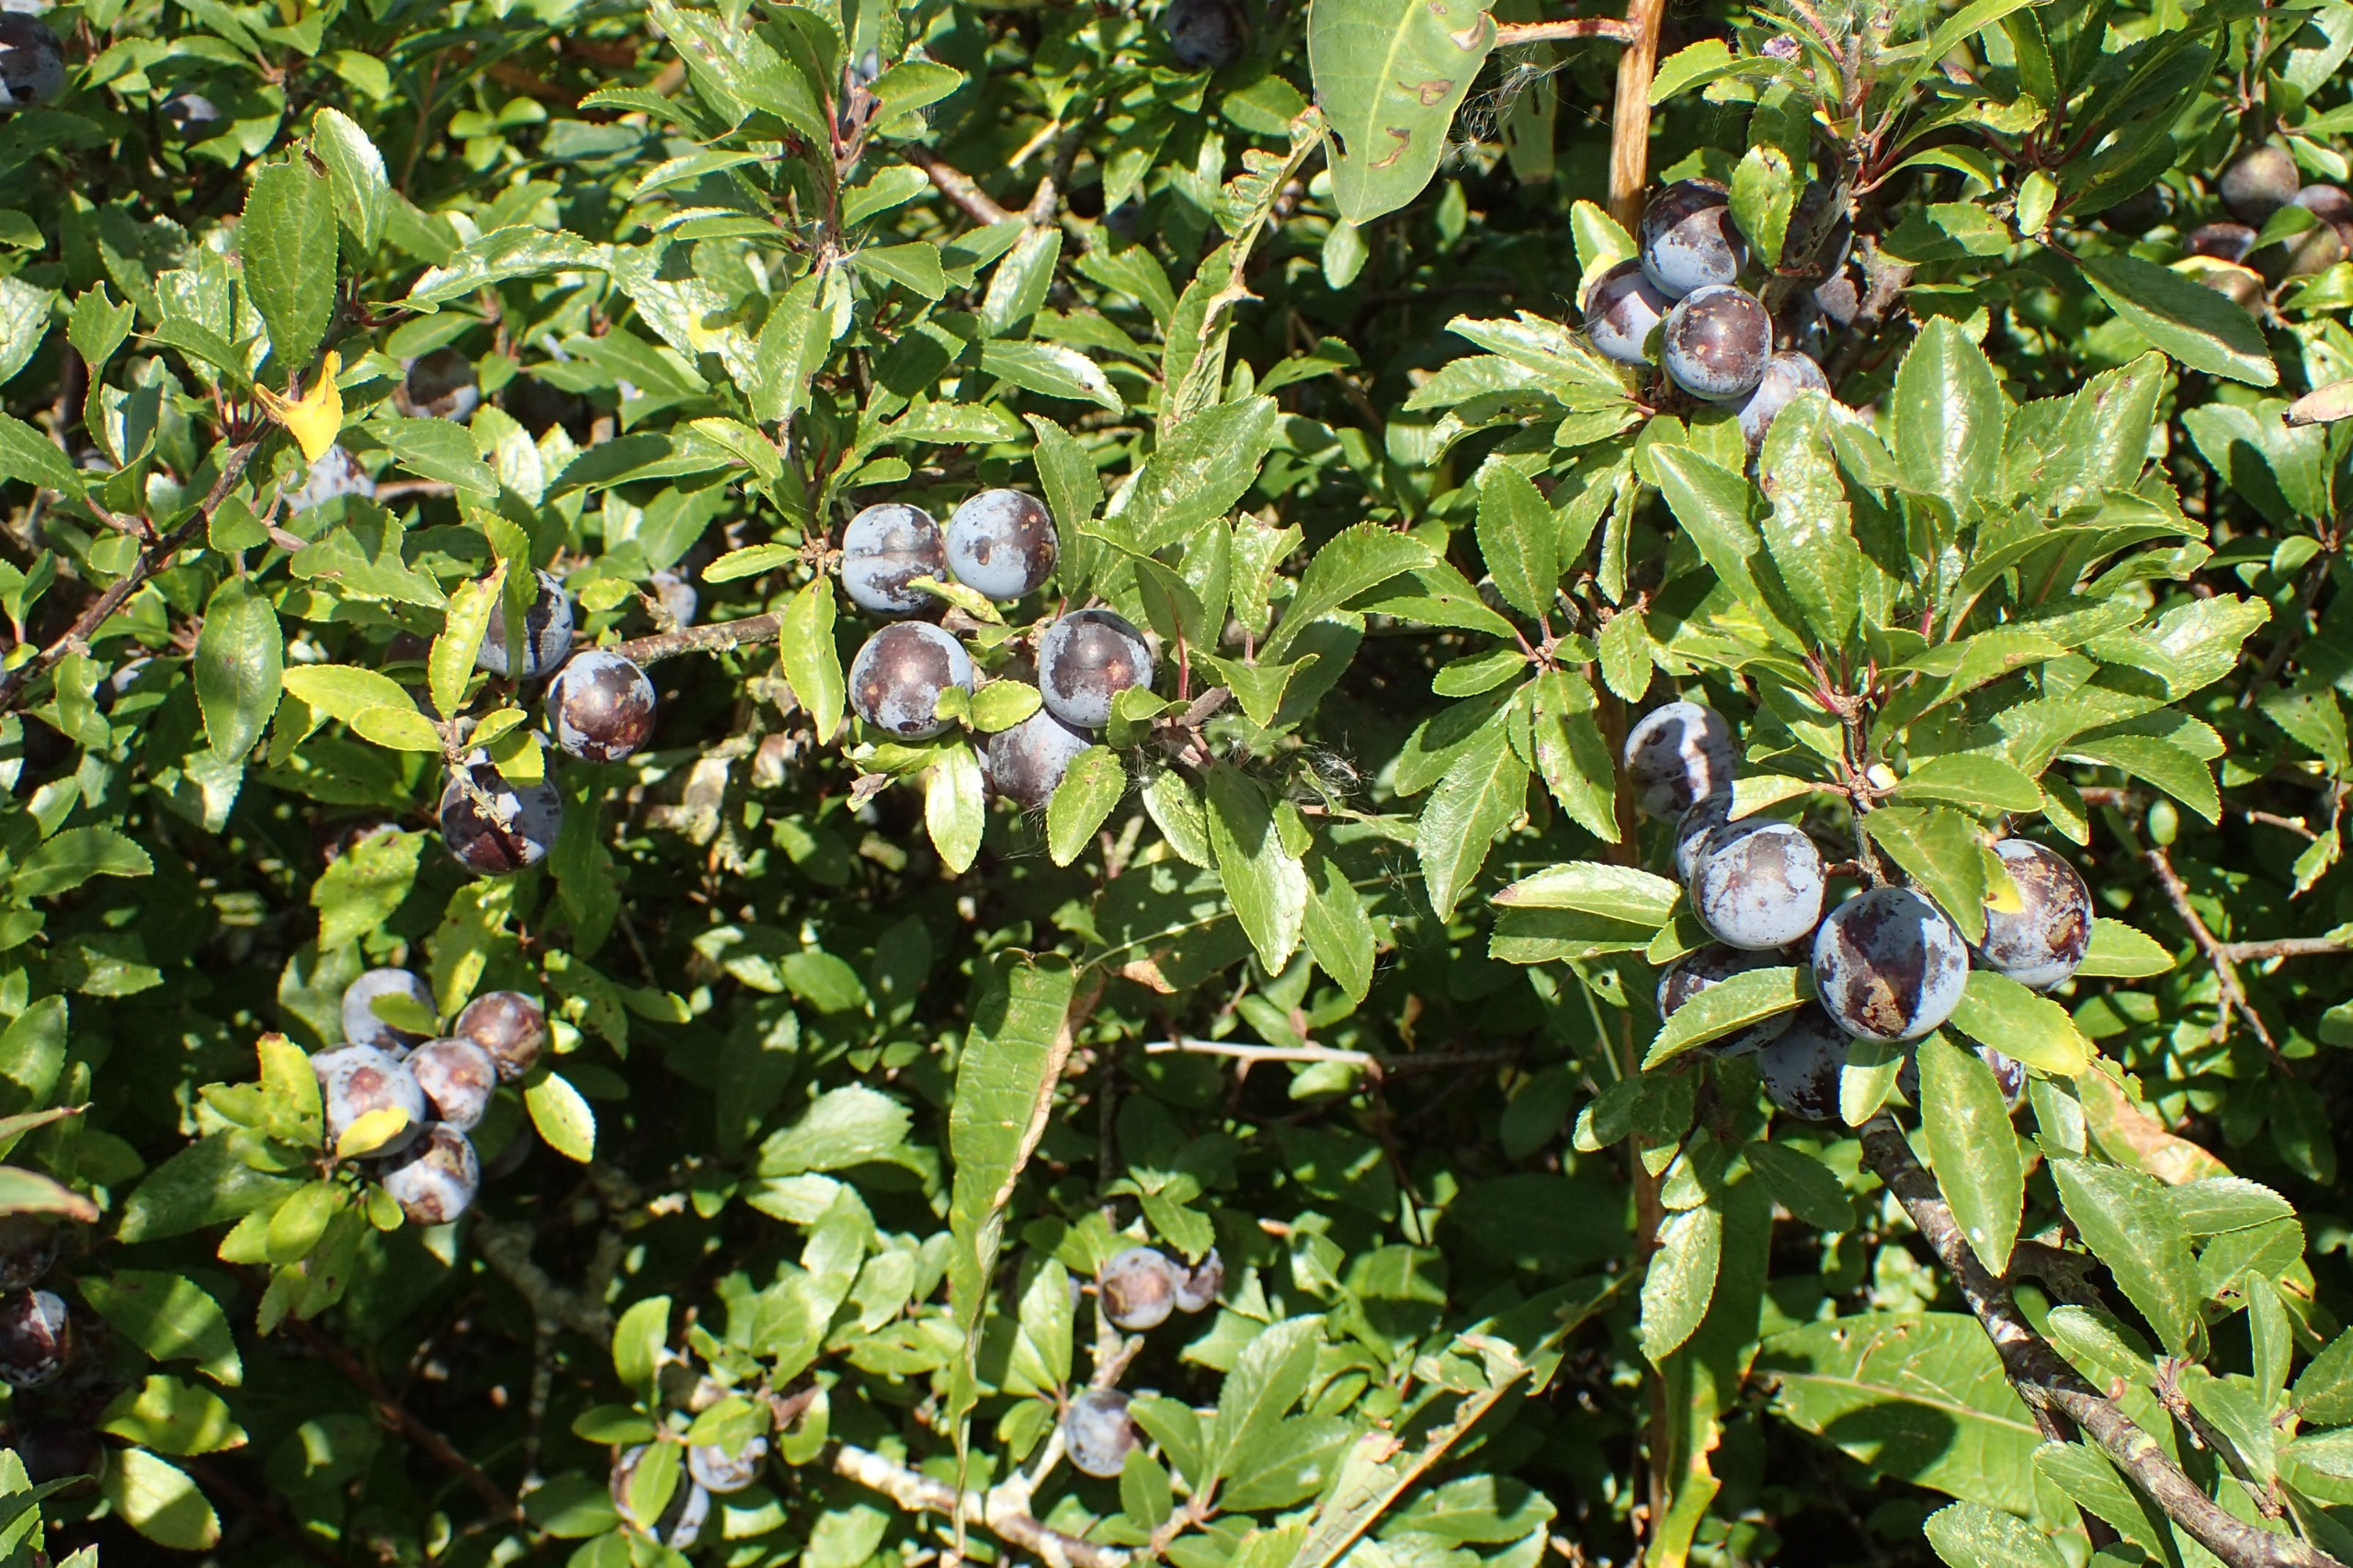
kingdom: Plantae
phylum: Tracheophyta
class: Magnoliopsida
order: Rosales
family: Rosaceae
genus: Prunus
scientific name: Prunus spinosa
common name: Slåen
